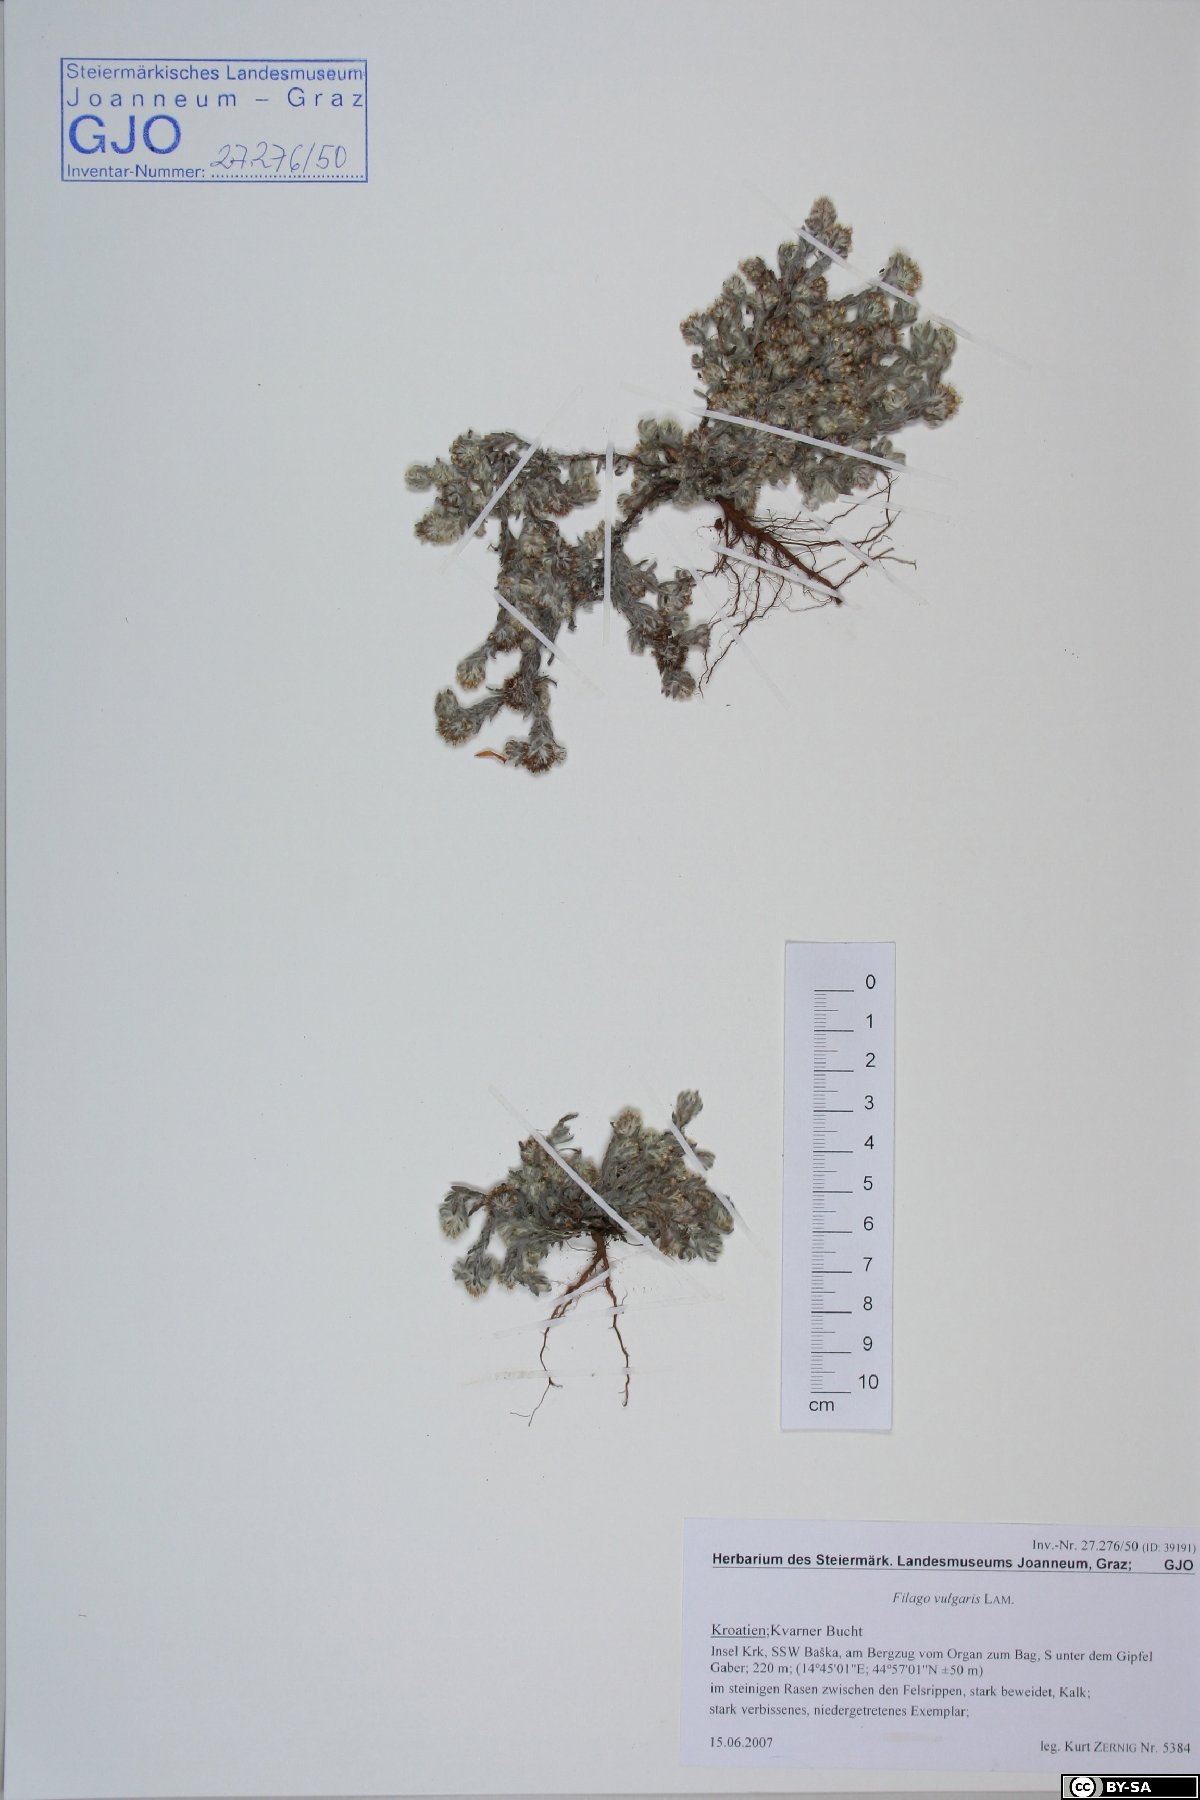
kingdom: Plantae
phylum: Tracheophyta
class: Magnoliopsida
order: Asterales
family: Asteraceae
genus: Filago
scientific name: Filago germanica
